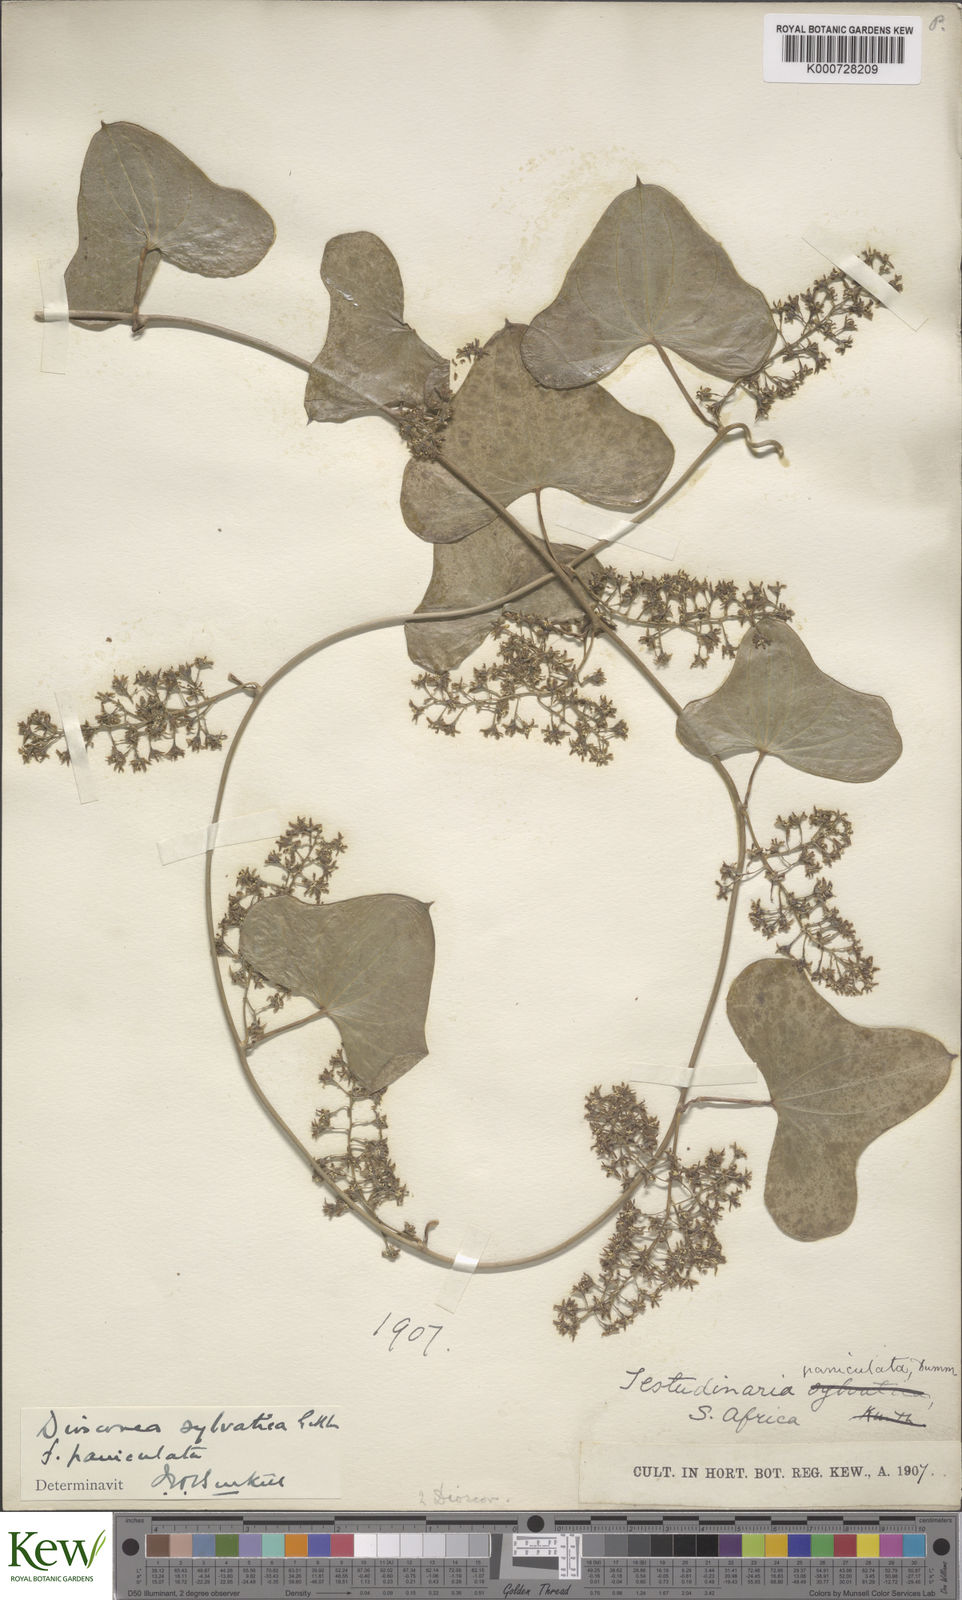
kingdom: Plantae
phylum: Tracheophyta
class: Liliopsida
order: Dioscoreales
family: Dioscoreaceae
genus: Dioscorea
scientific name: Dioscorea sylvatica
